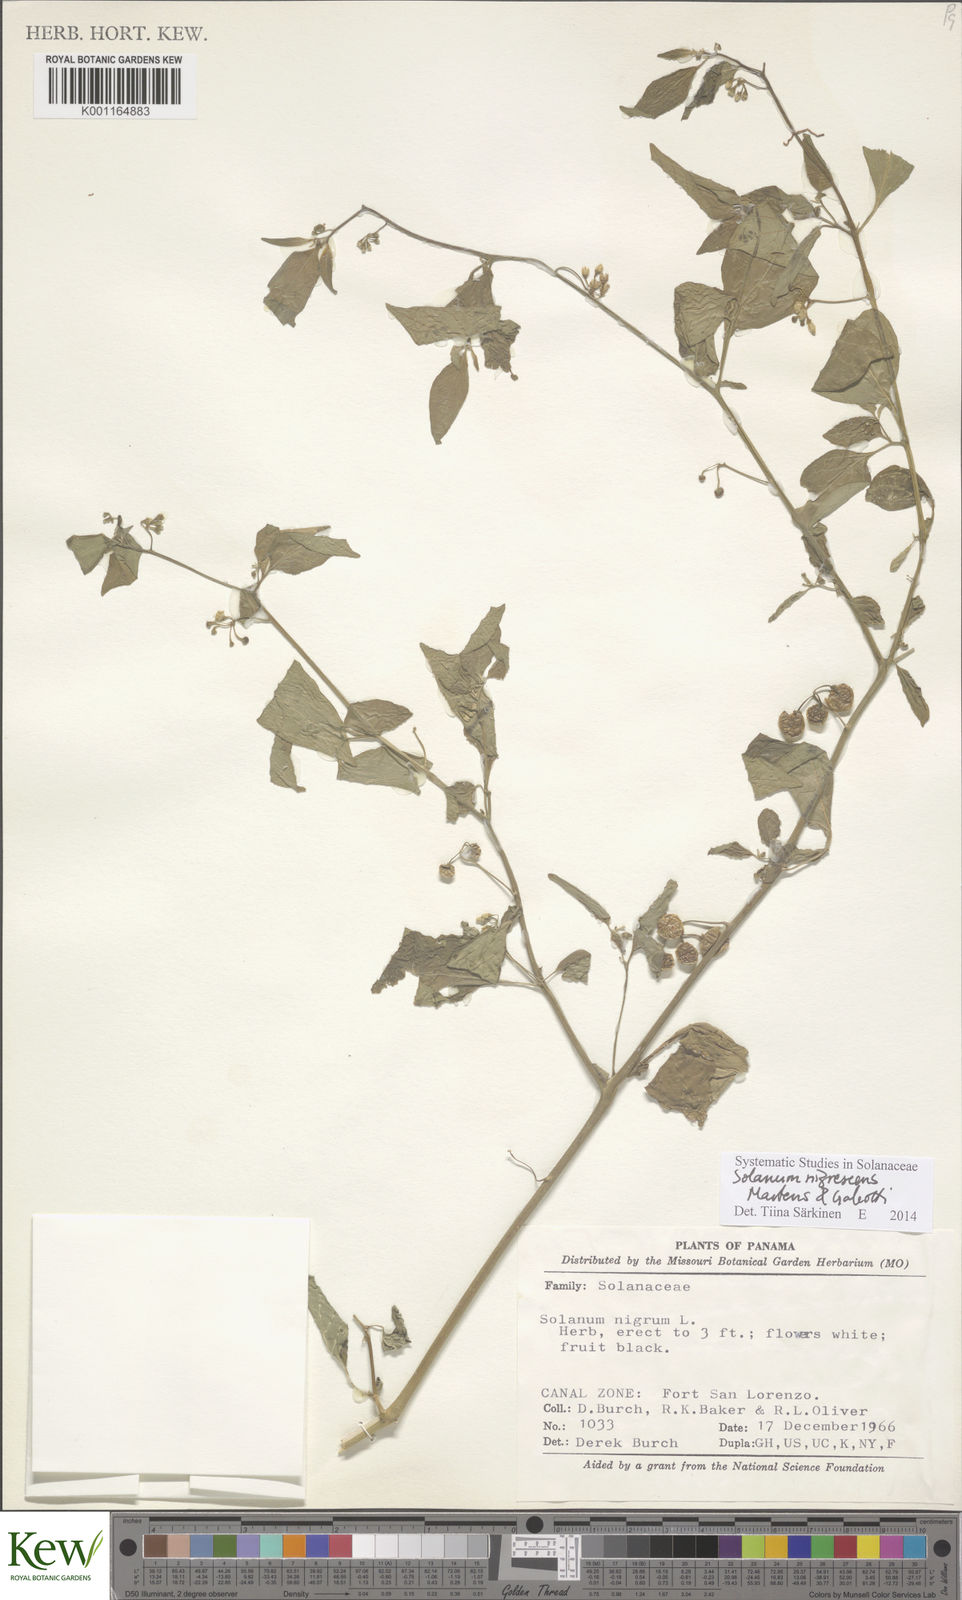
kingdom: Plantae
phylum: Tracheophyta
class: Magnoliopsida
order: Solanales
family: Solanaceae
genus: Solanum
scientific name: Solanum americanum
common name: American black nightshade
